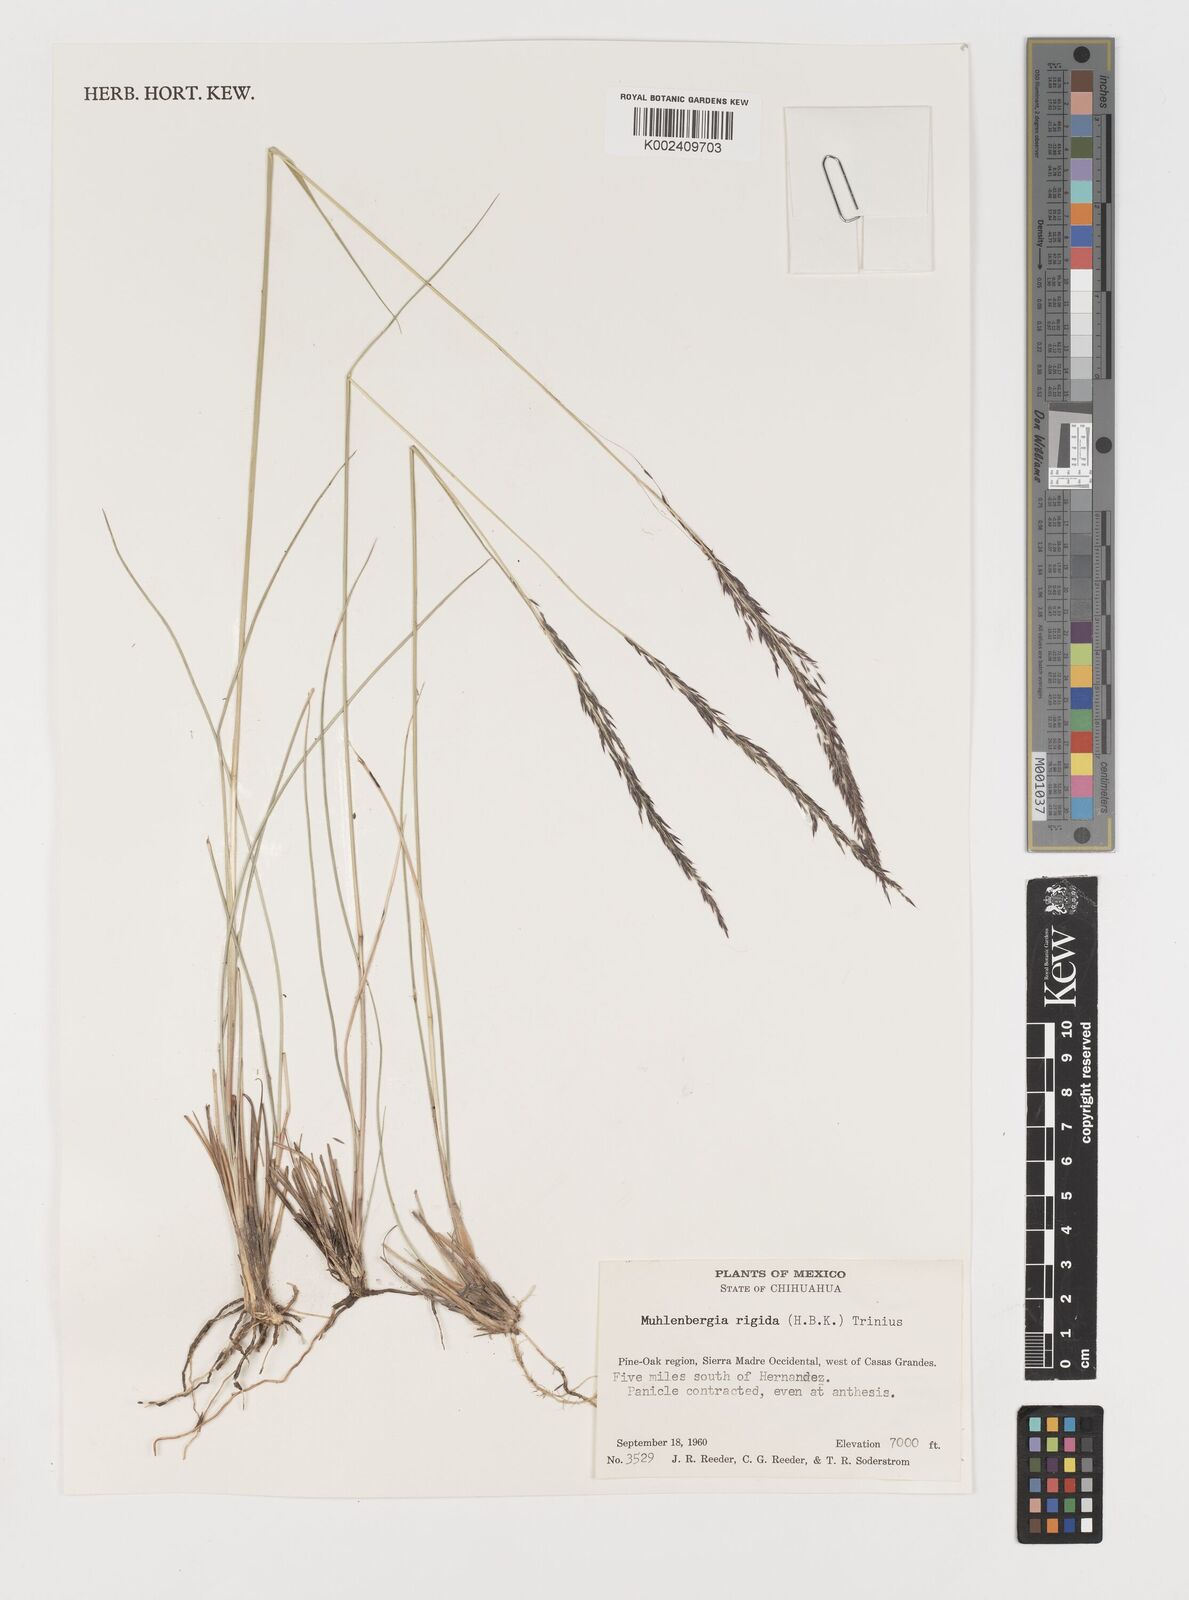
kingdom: Plantae
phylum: Tracheophyta
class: Liliopsida
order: Poales
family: Poaceae
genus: Muhlenbergia
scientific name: Muhlenbergia rigida
